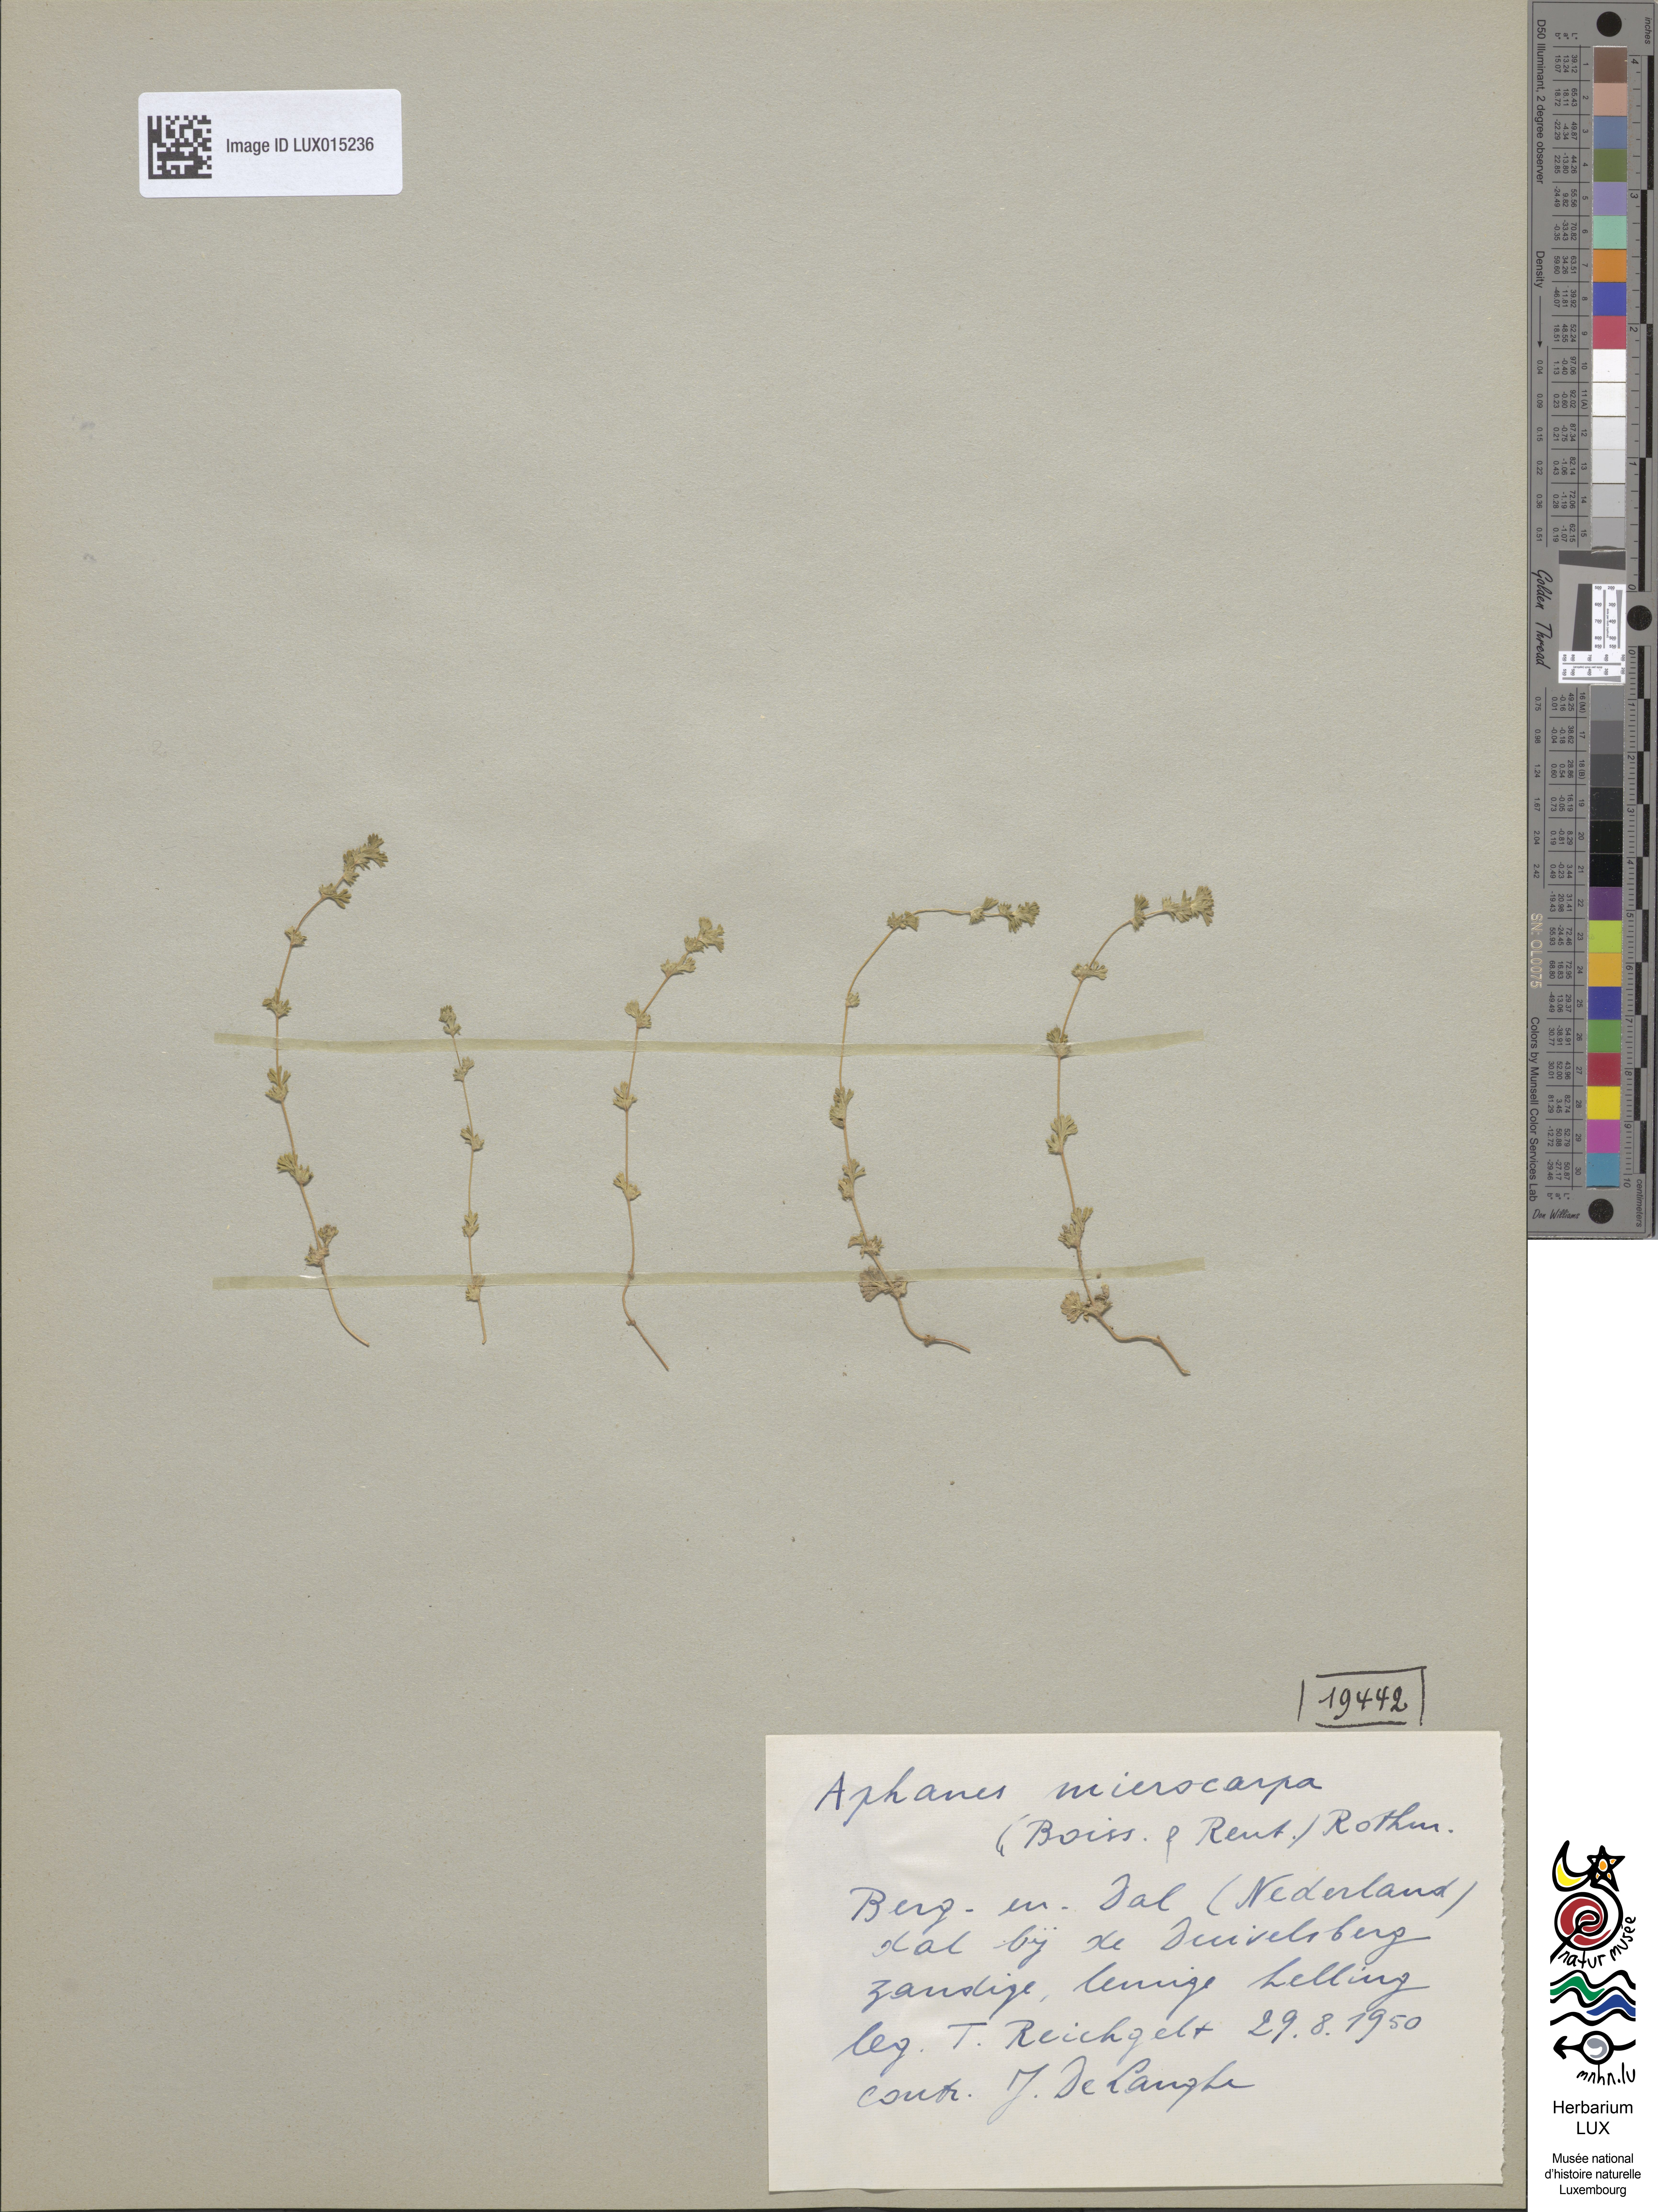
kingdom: Plantae
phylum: Tracheophyta
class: Magnoliopsida
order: Rosales
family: Rosaceae
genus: Aphanes
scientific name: Aphanes microcarpa
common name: Slender parsley piert
